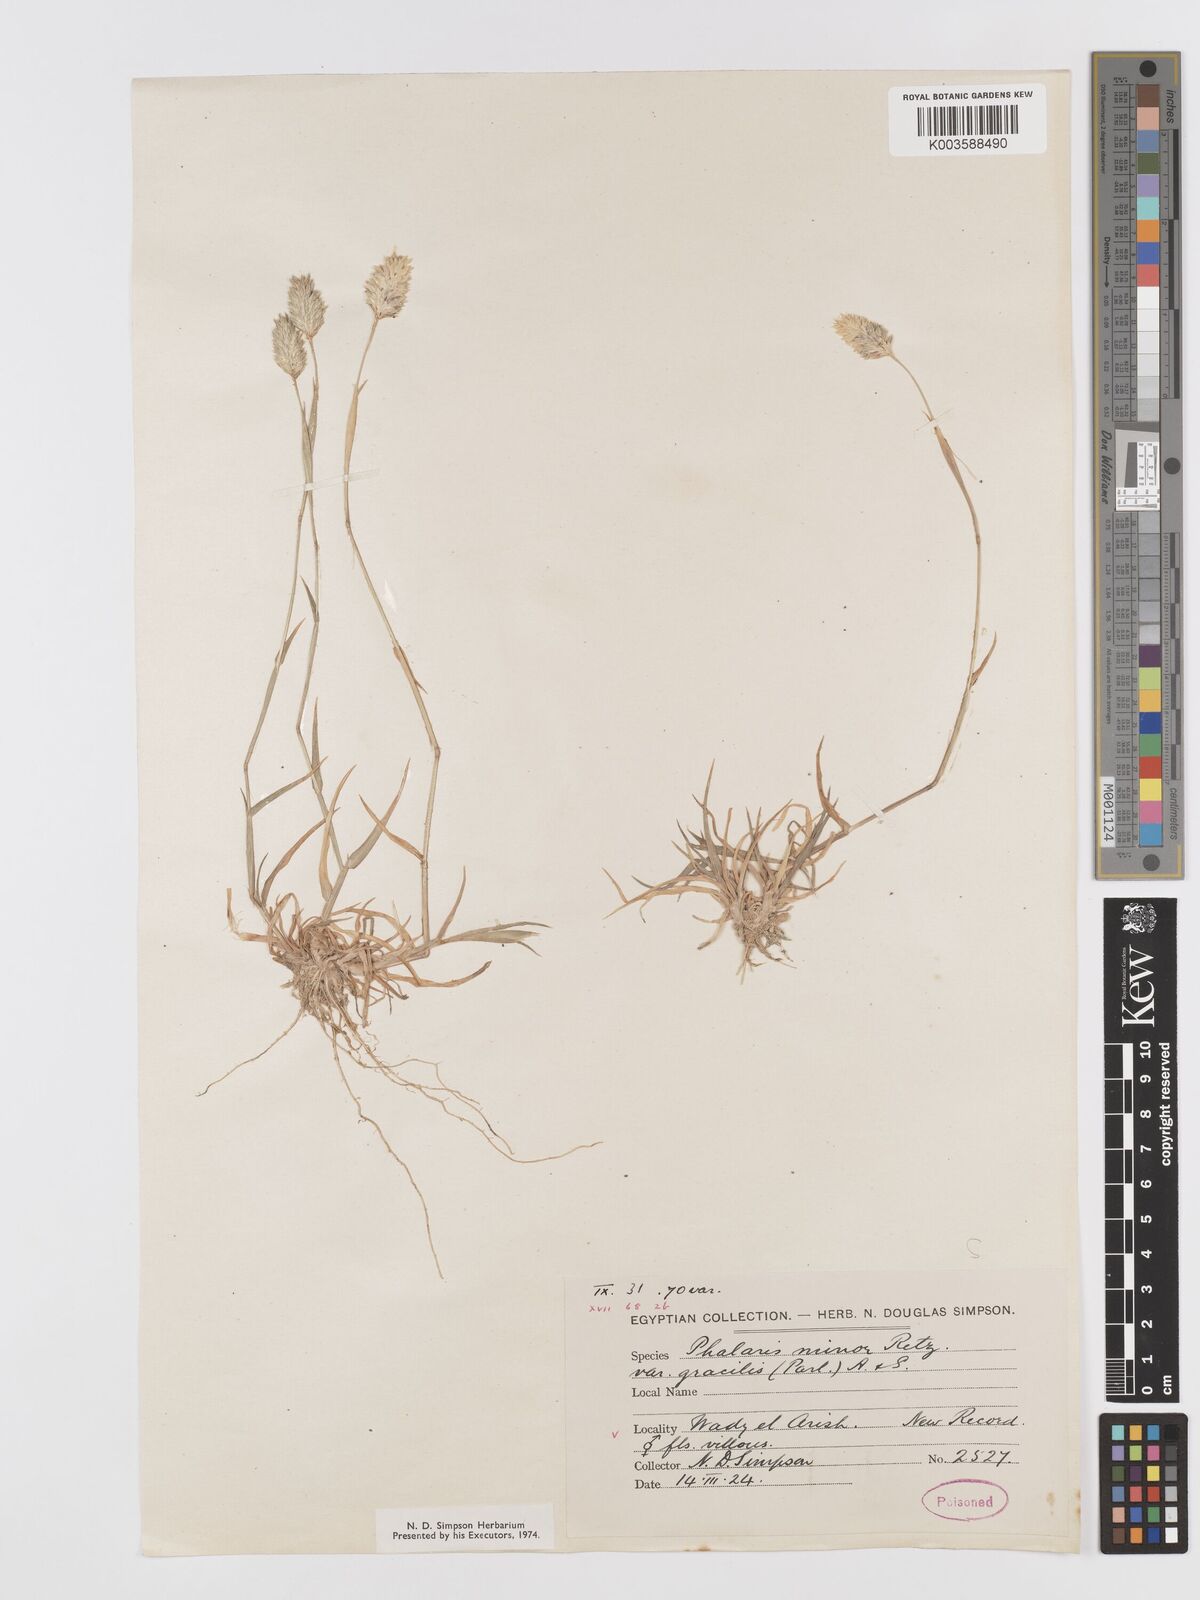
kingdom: Plantae
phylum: Tracheophyta
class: Liliopsida
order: Poales
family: Poaceae
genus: Phalaris
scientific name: Phalaris minor
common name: Littleseed canarygrass
